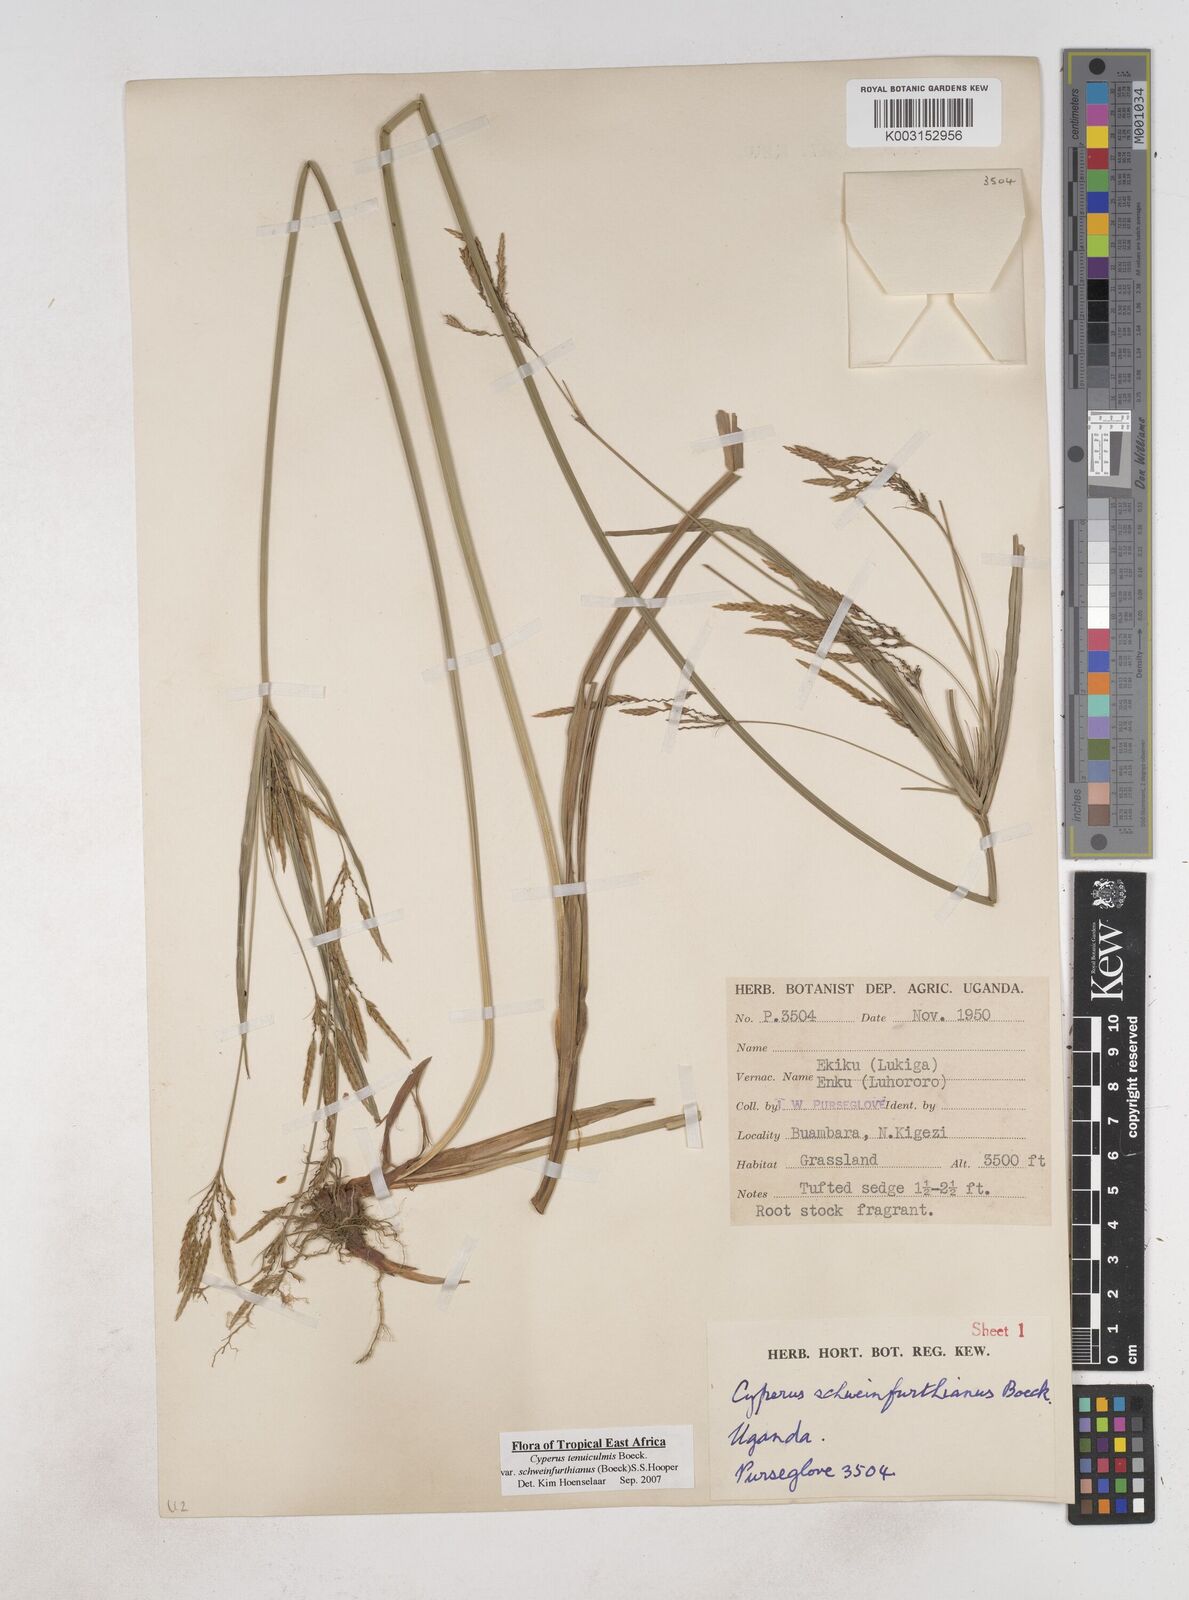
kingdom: Plantae
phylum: Tracheophyta
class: Liliopsida
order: Poales
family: Cyperaceae
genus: Cyperus
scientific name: Cyperus tenuiculmis
